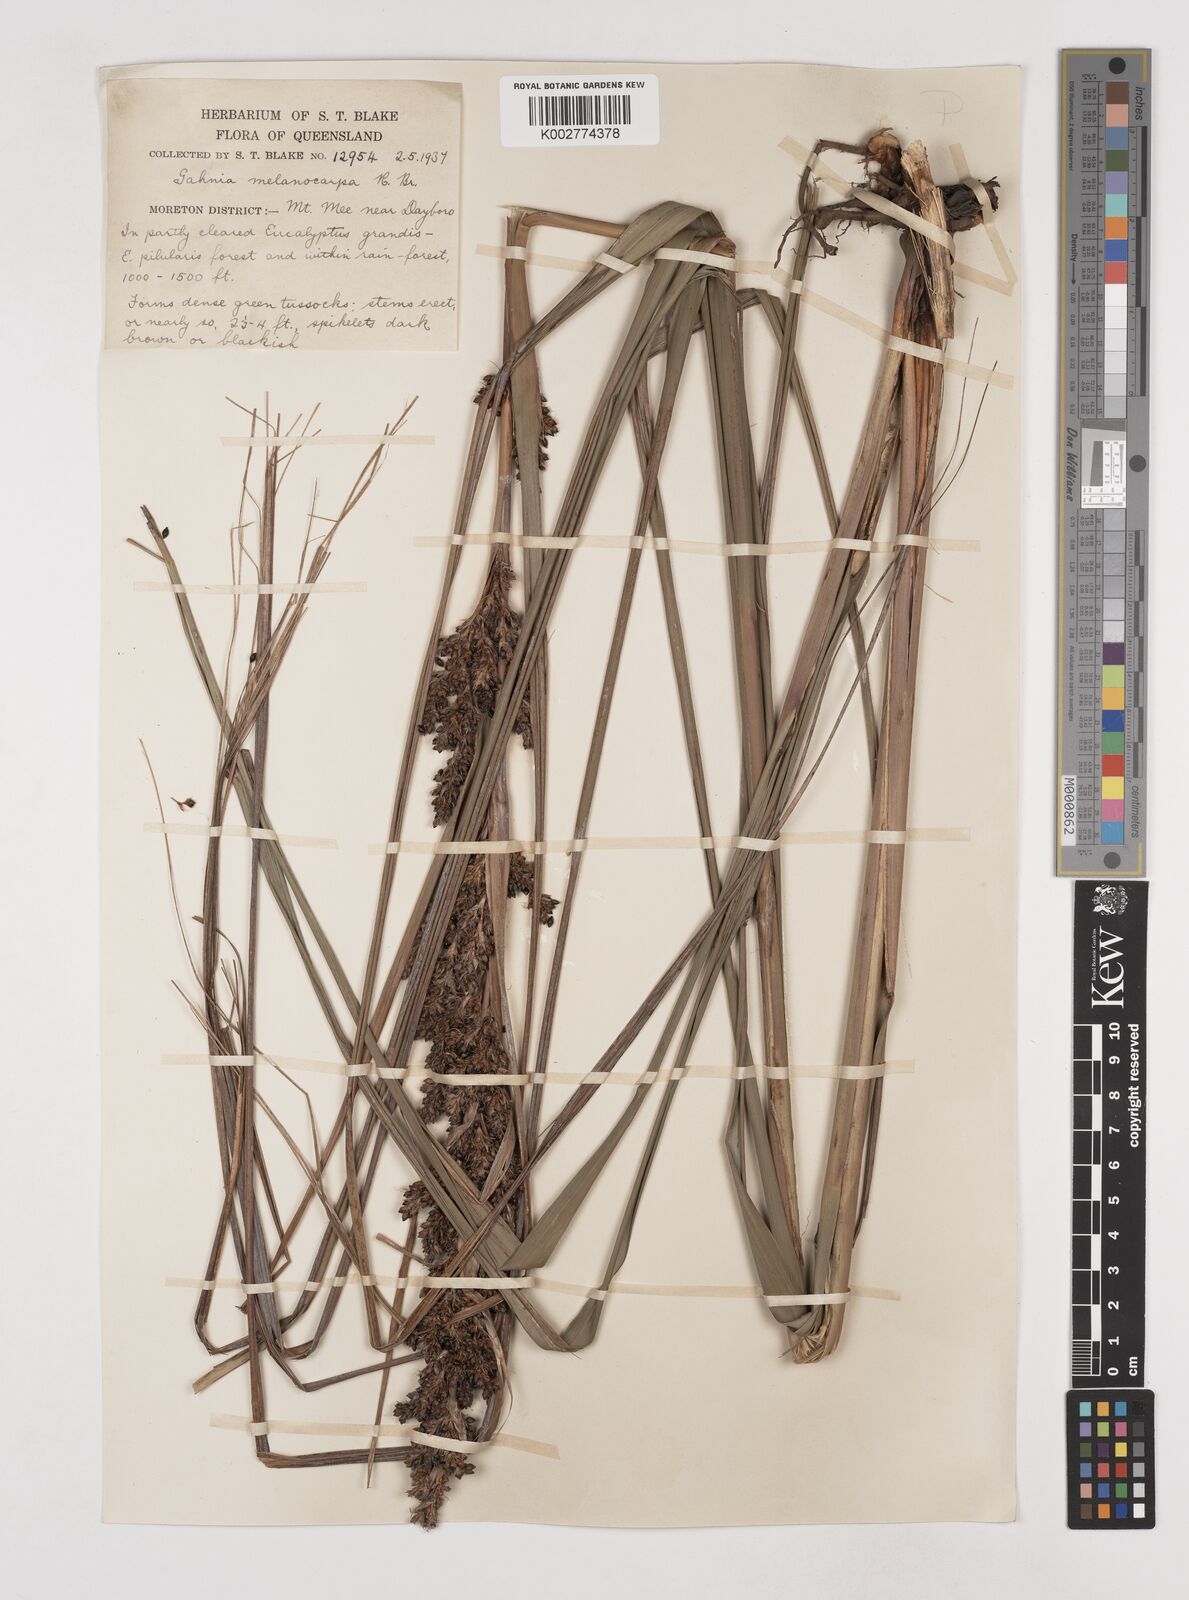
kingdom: Plantae
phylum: Tracheophyta
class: Liliopsida
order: Poales
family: Cyperaceae
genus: Gahnia
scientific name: Gahnia melanocarpa
